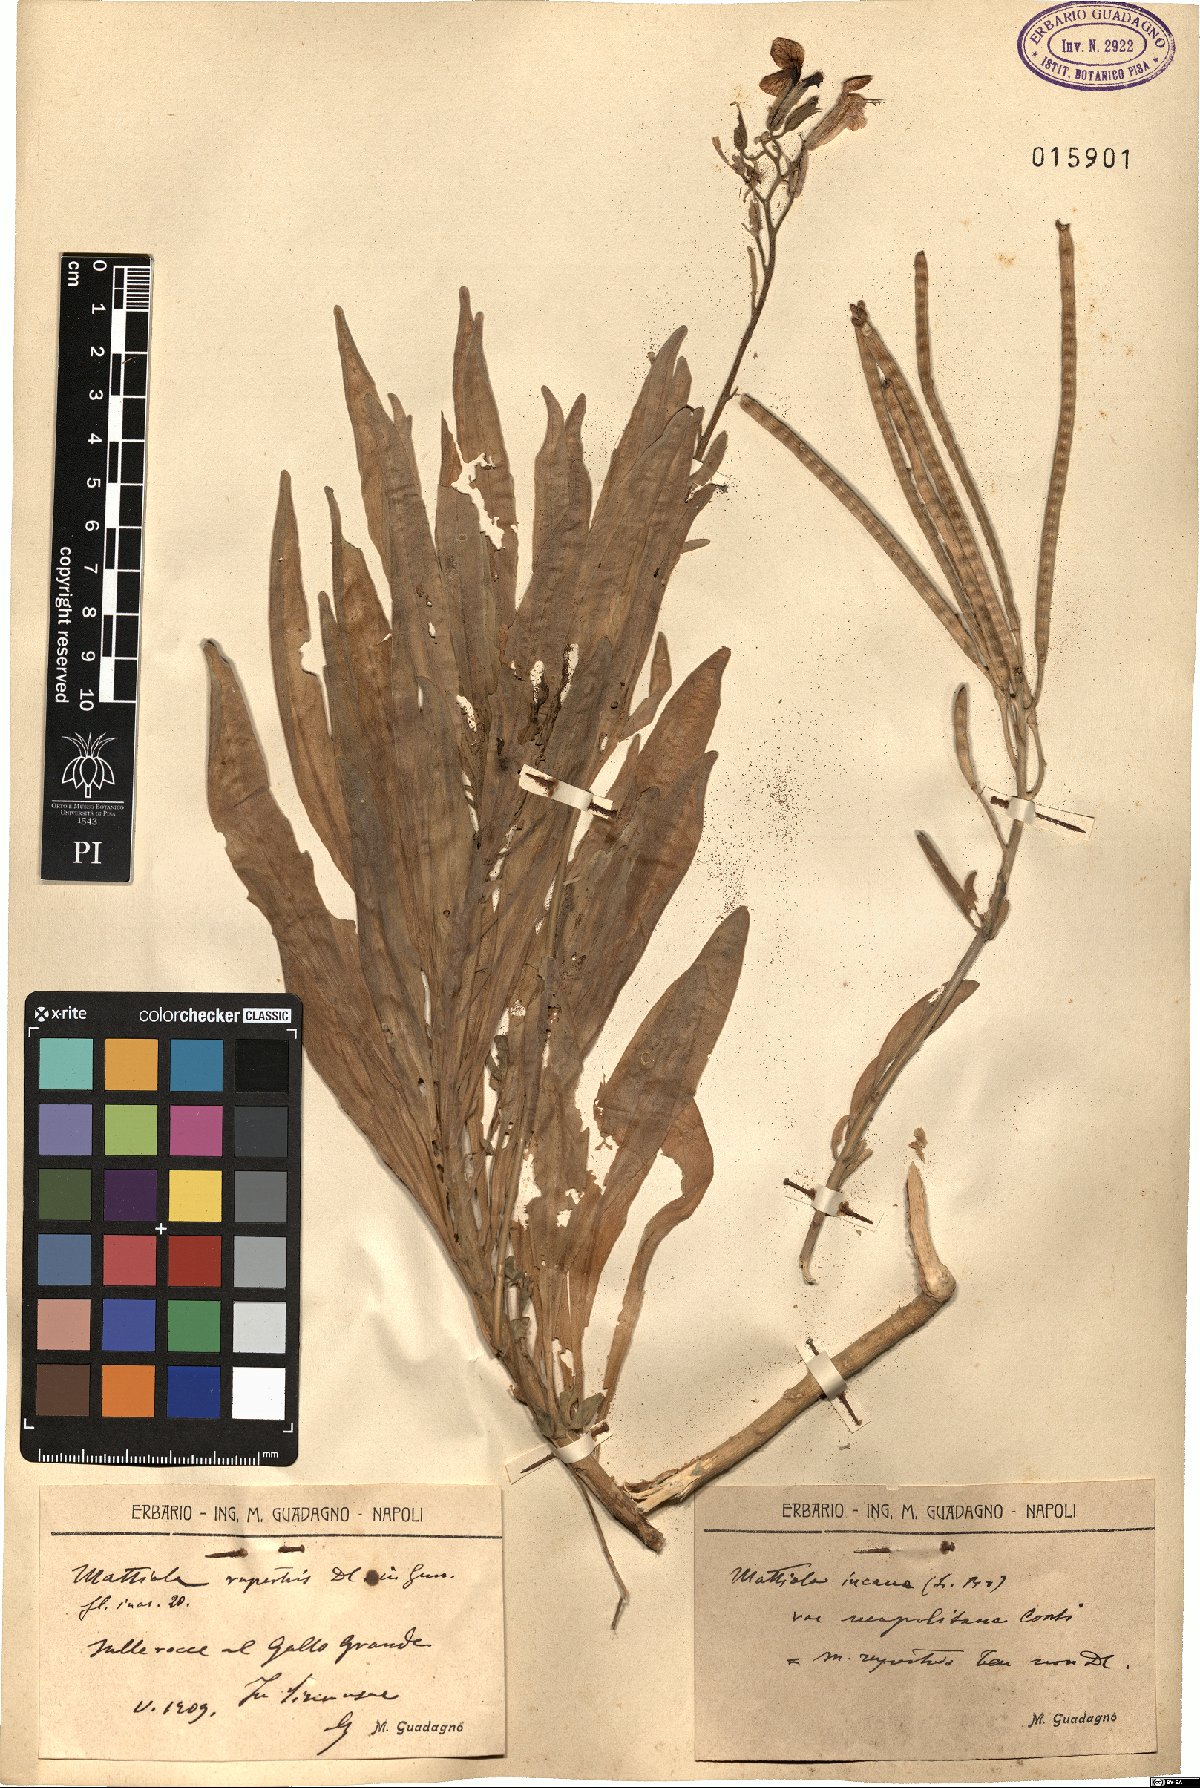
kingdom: Plantae
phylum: Tracheophyta
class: Magnoliopsida
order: Brassicales
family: Brassicaceae
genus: Matthiola
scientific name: Matthiola incana
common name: Hoary stock
